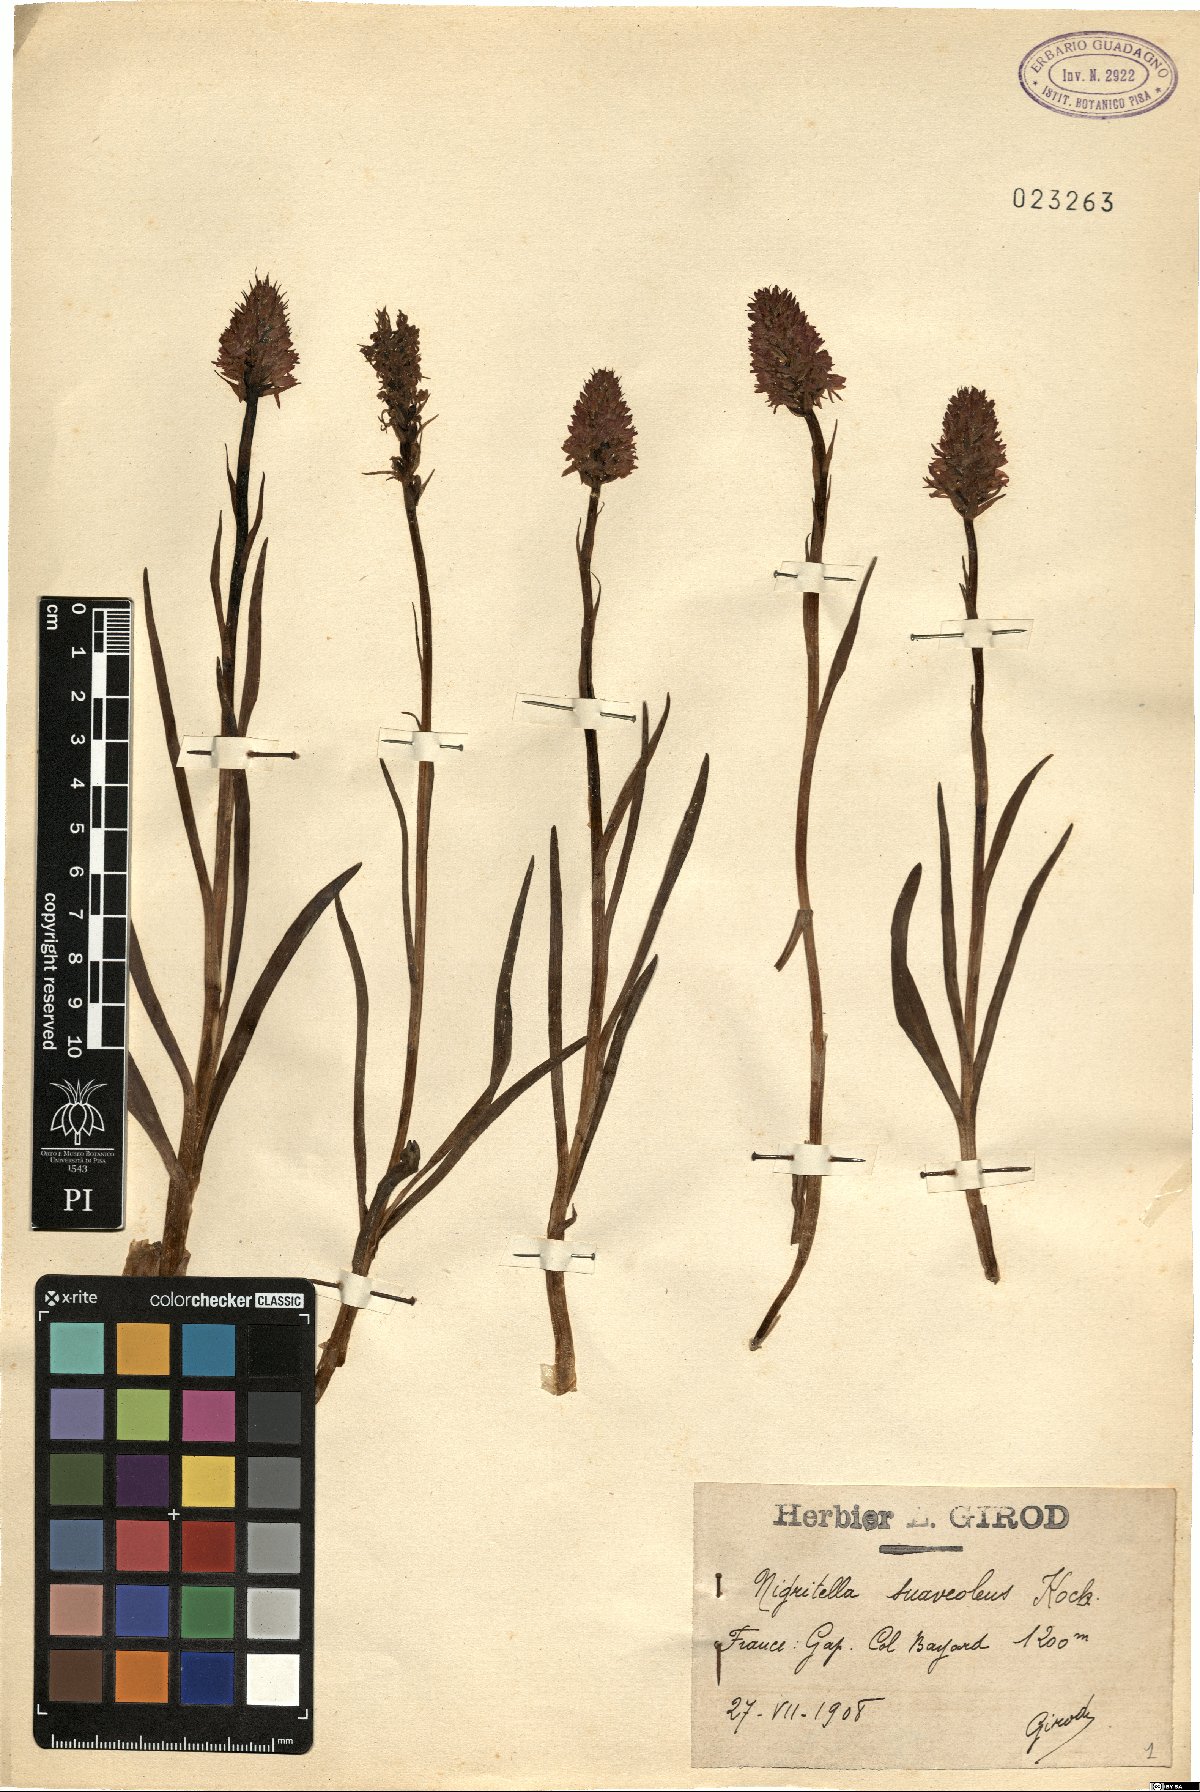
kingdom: Plantae
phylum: Tracheophyta
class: Liliopsida
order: Asparagales
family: Orchidaceae
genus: Gymnadenia
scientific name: Gymnadenia nigra
